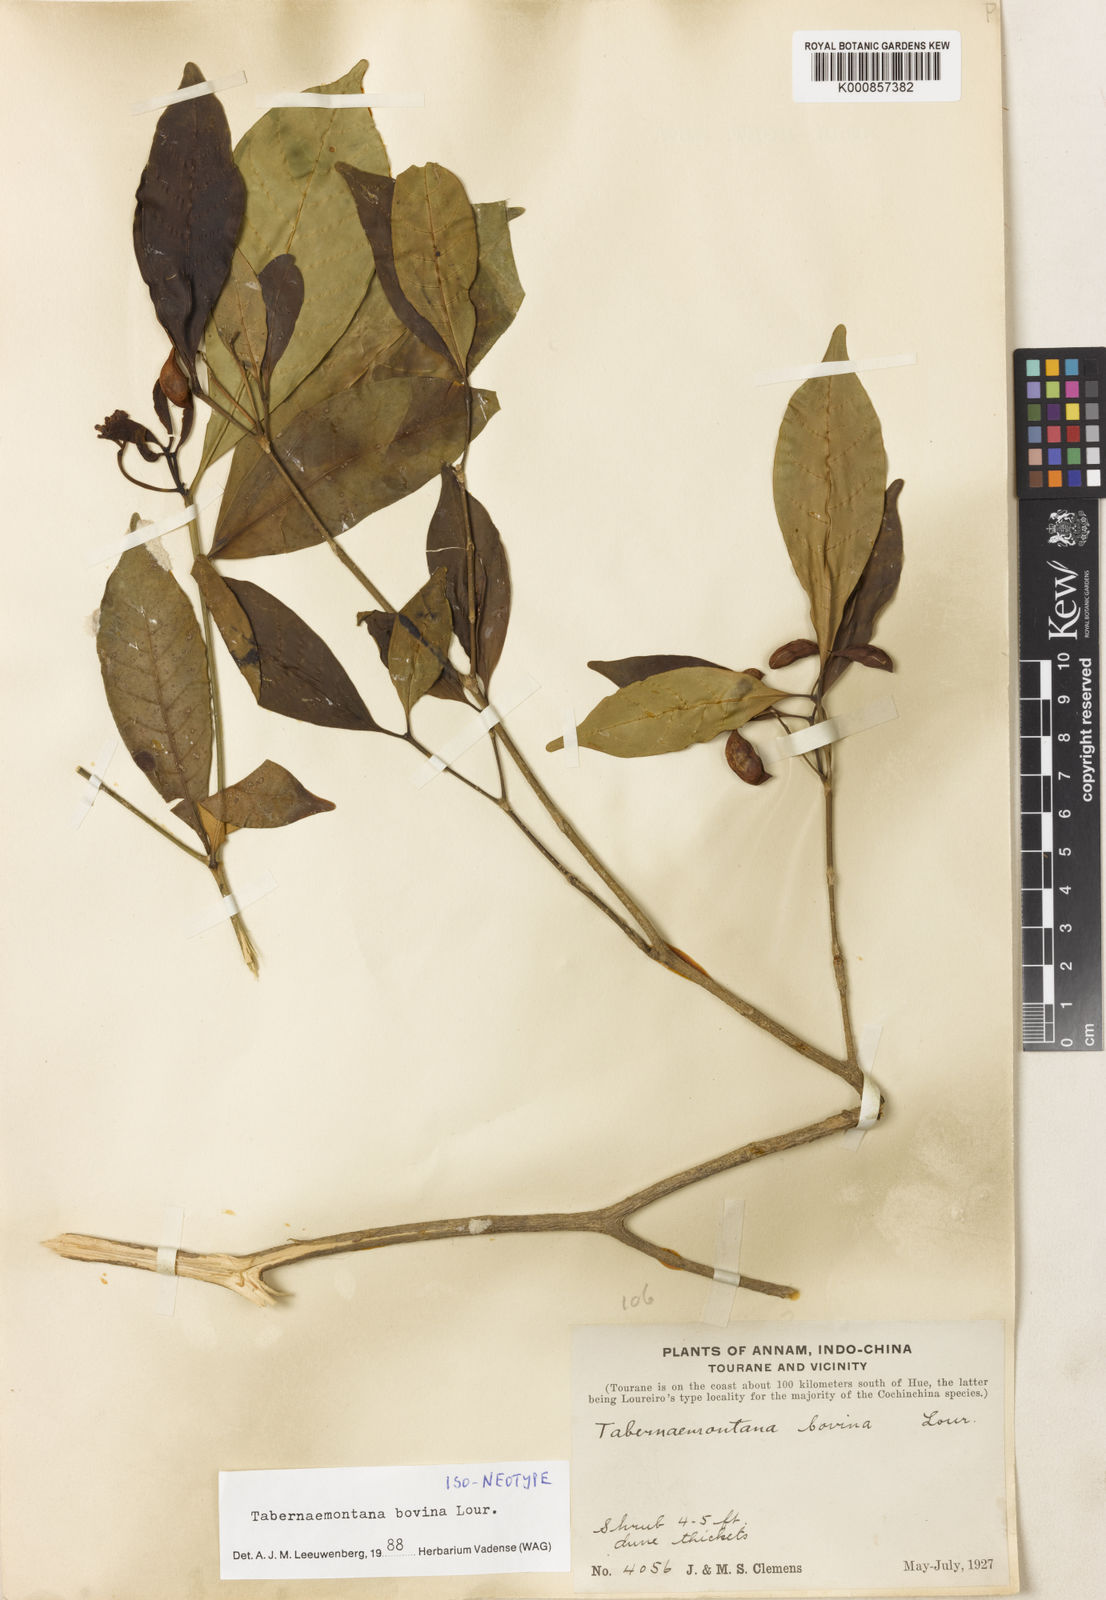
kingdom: Plantae
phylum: Tracheophyta
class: Magnoliopsida
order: Gentianales
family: Apocynaceae
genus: Tabernaemontana
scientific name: Tabernaemontana bovina
